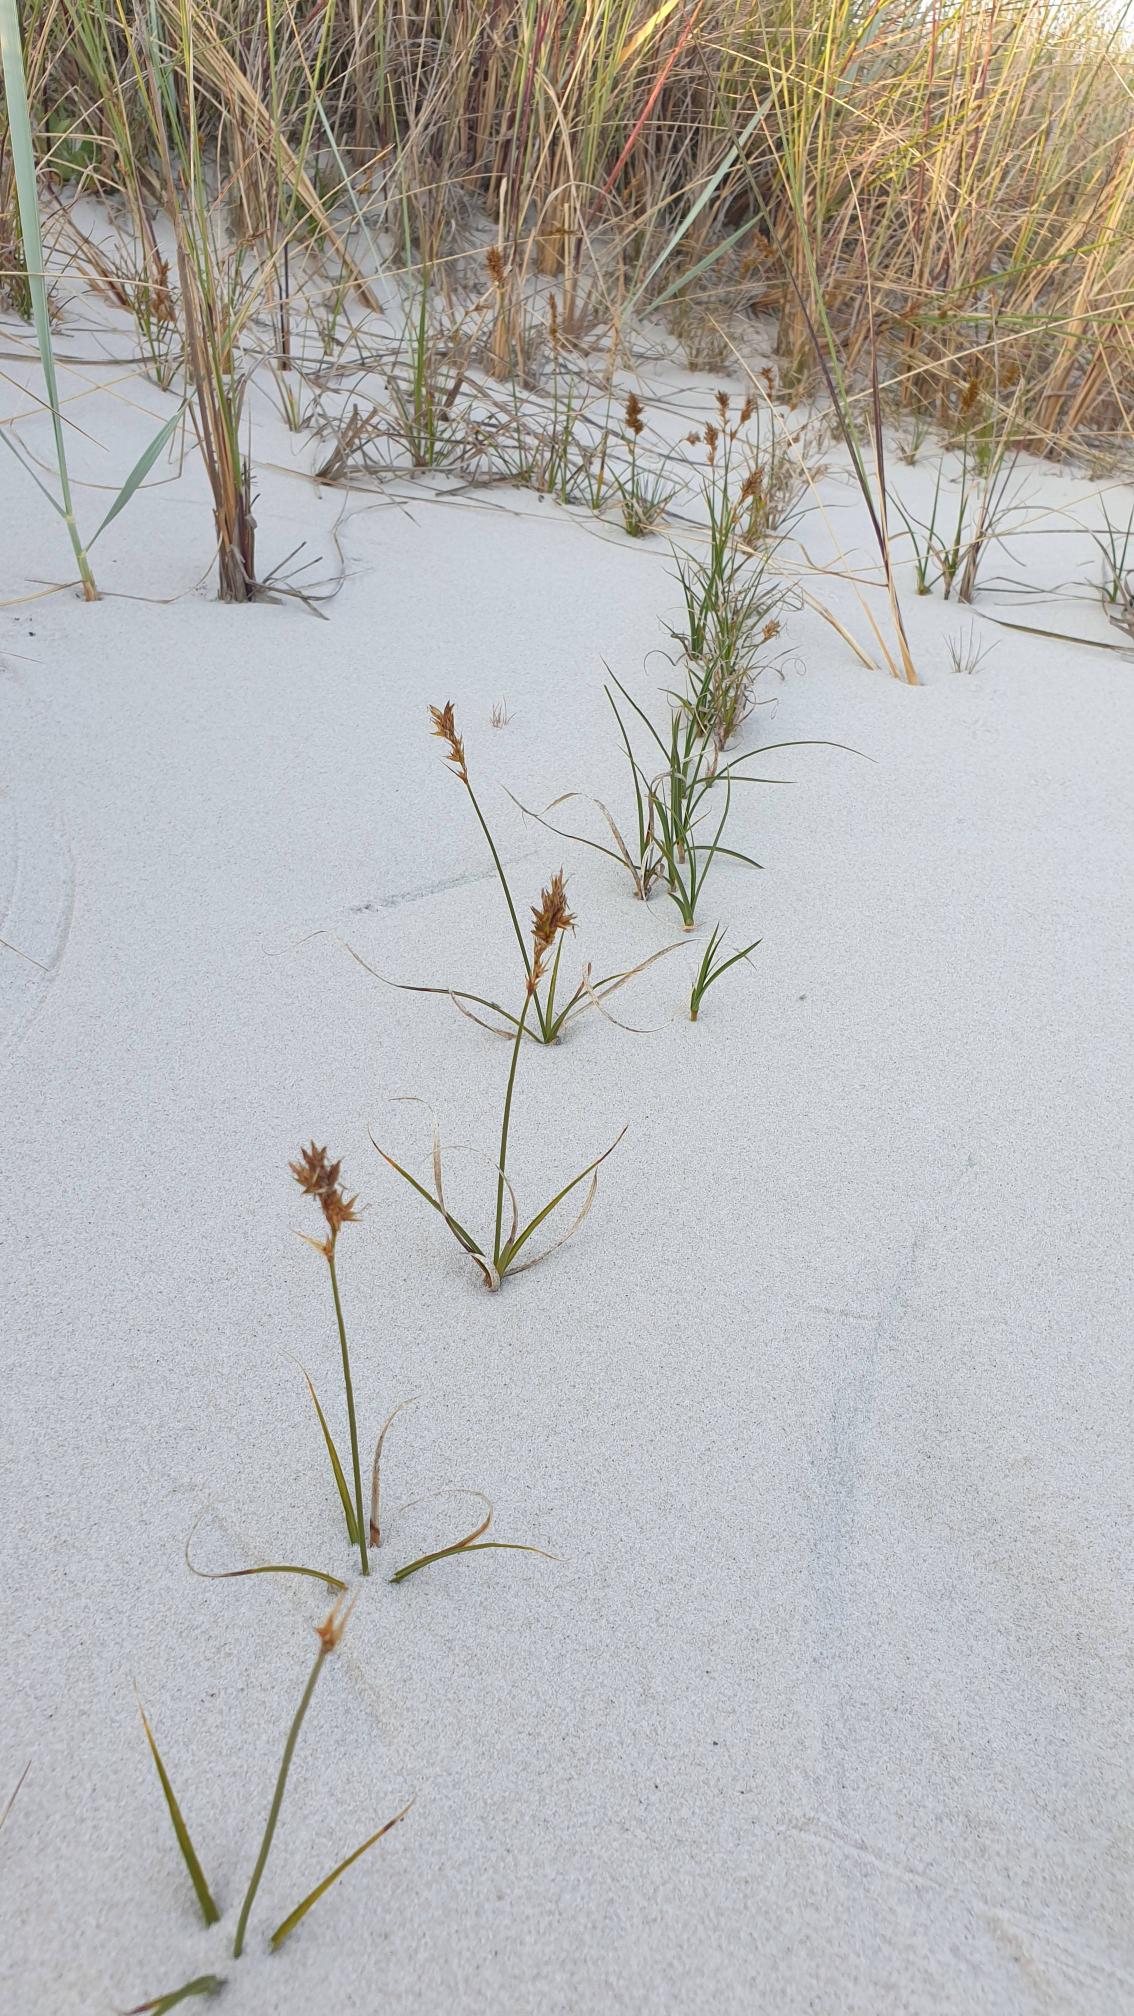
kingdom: Plantae
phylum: Tracheophyta
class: Liliopsida
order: Poales
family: Cyperaceae
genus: Carex
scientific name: Carex arenaria
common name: Sand-star
